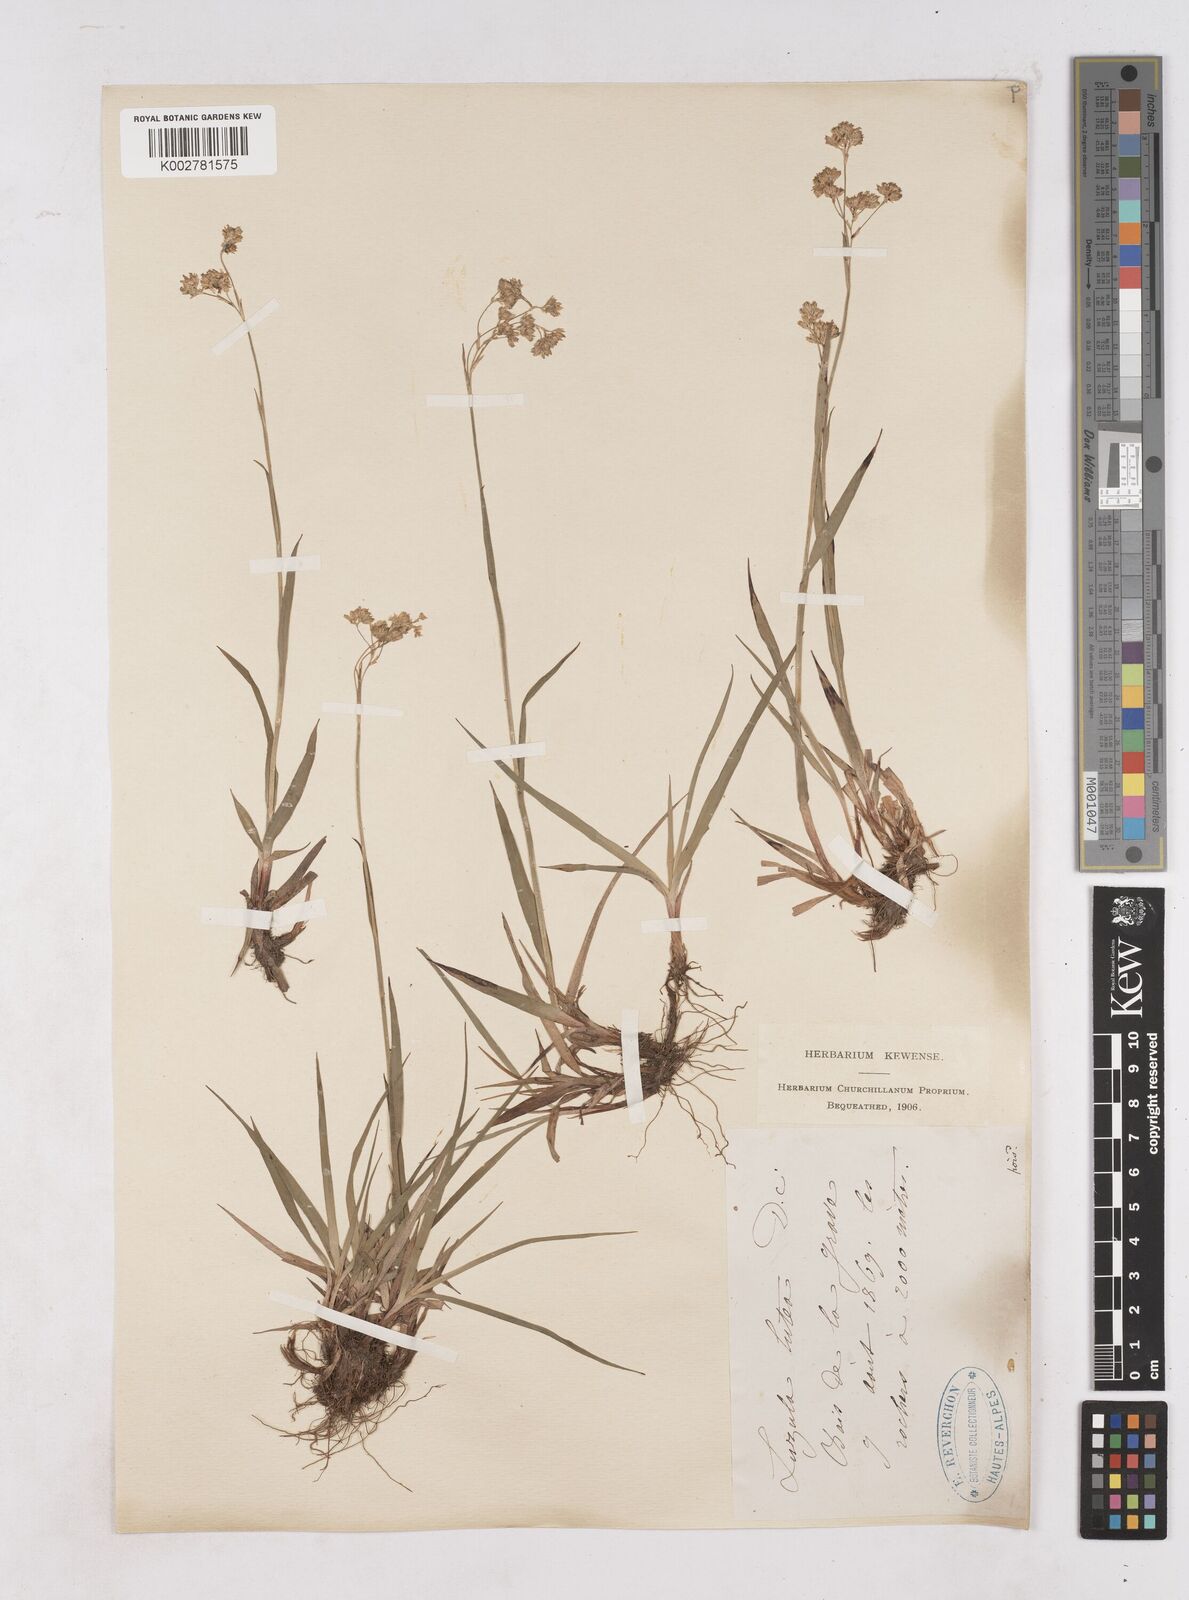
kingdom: Plantae
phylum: Tracheophyta
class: Liliopsida
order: Poales
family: Juncaceae
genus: Luzula
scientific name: Luzula lutea
